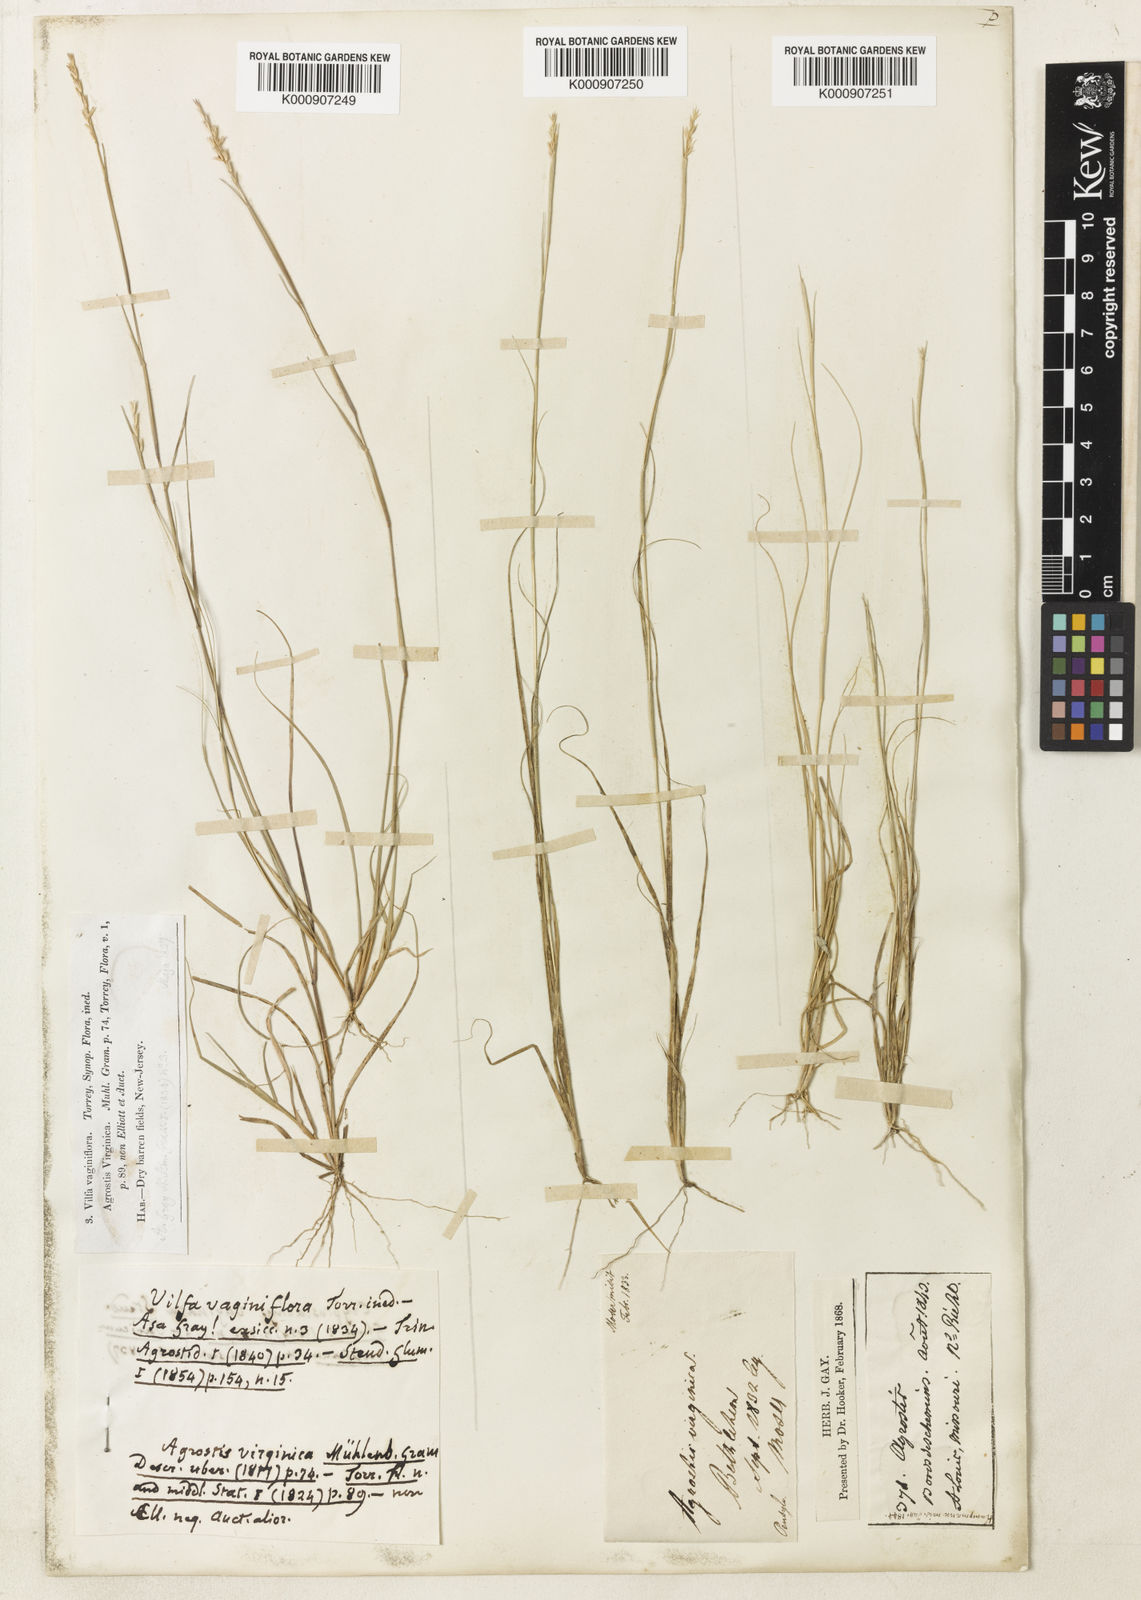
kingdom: Plantae
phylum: Tracheophyta
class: Liliopsida
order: Poales
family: Poaceae
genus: Sporobolus
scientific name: Sporobolus vaginiflorus
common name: Poverty dropseed
